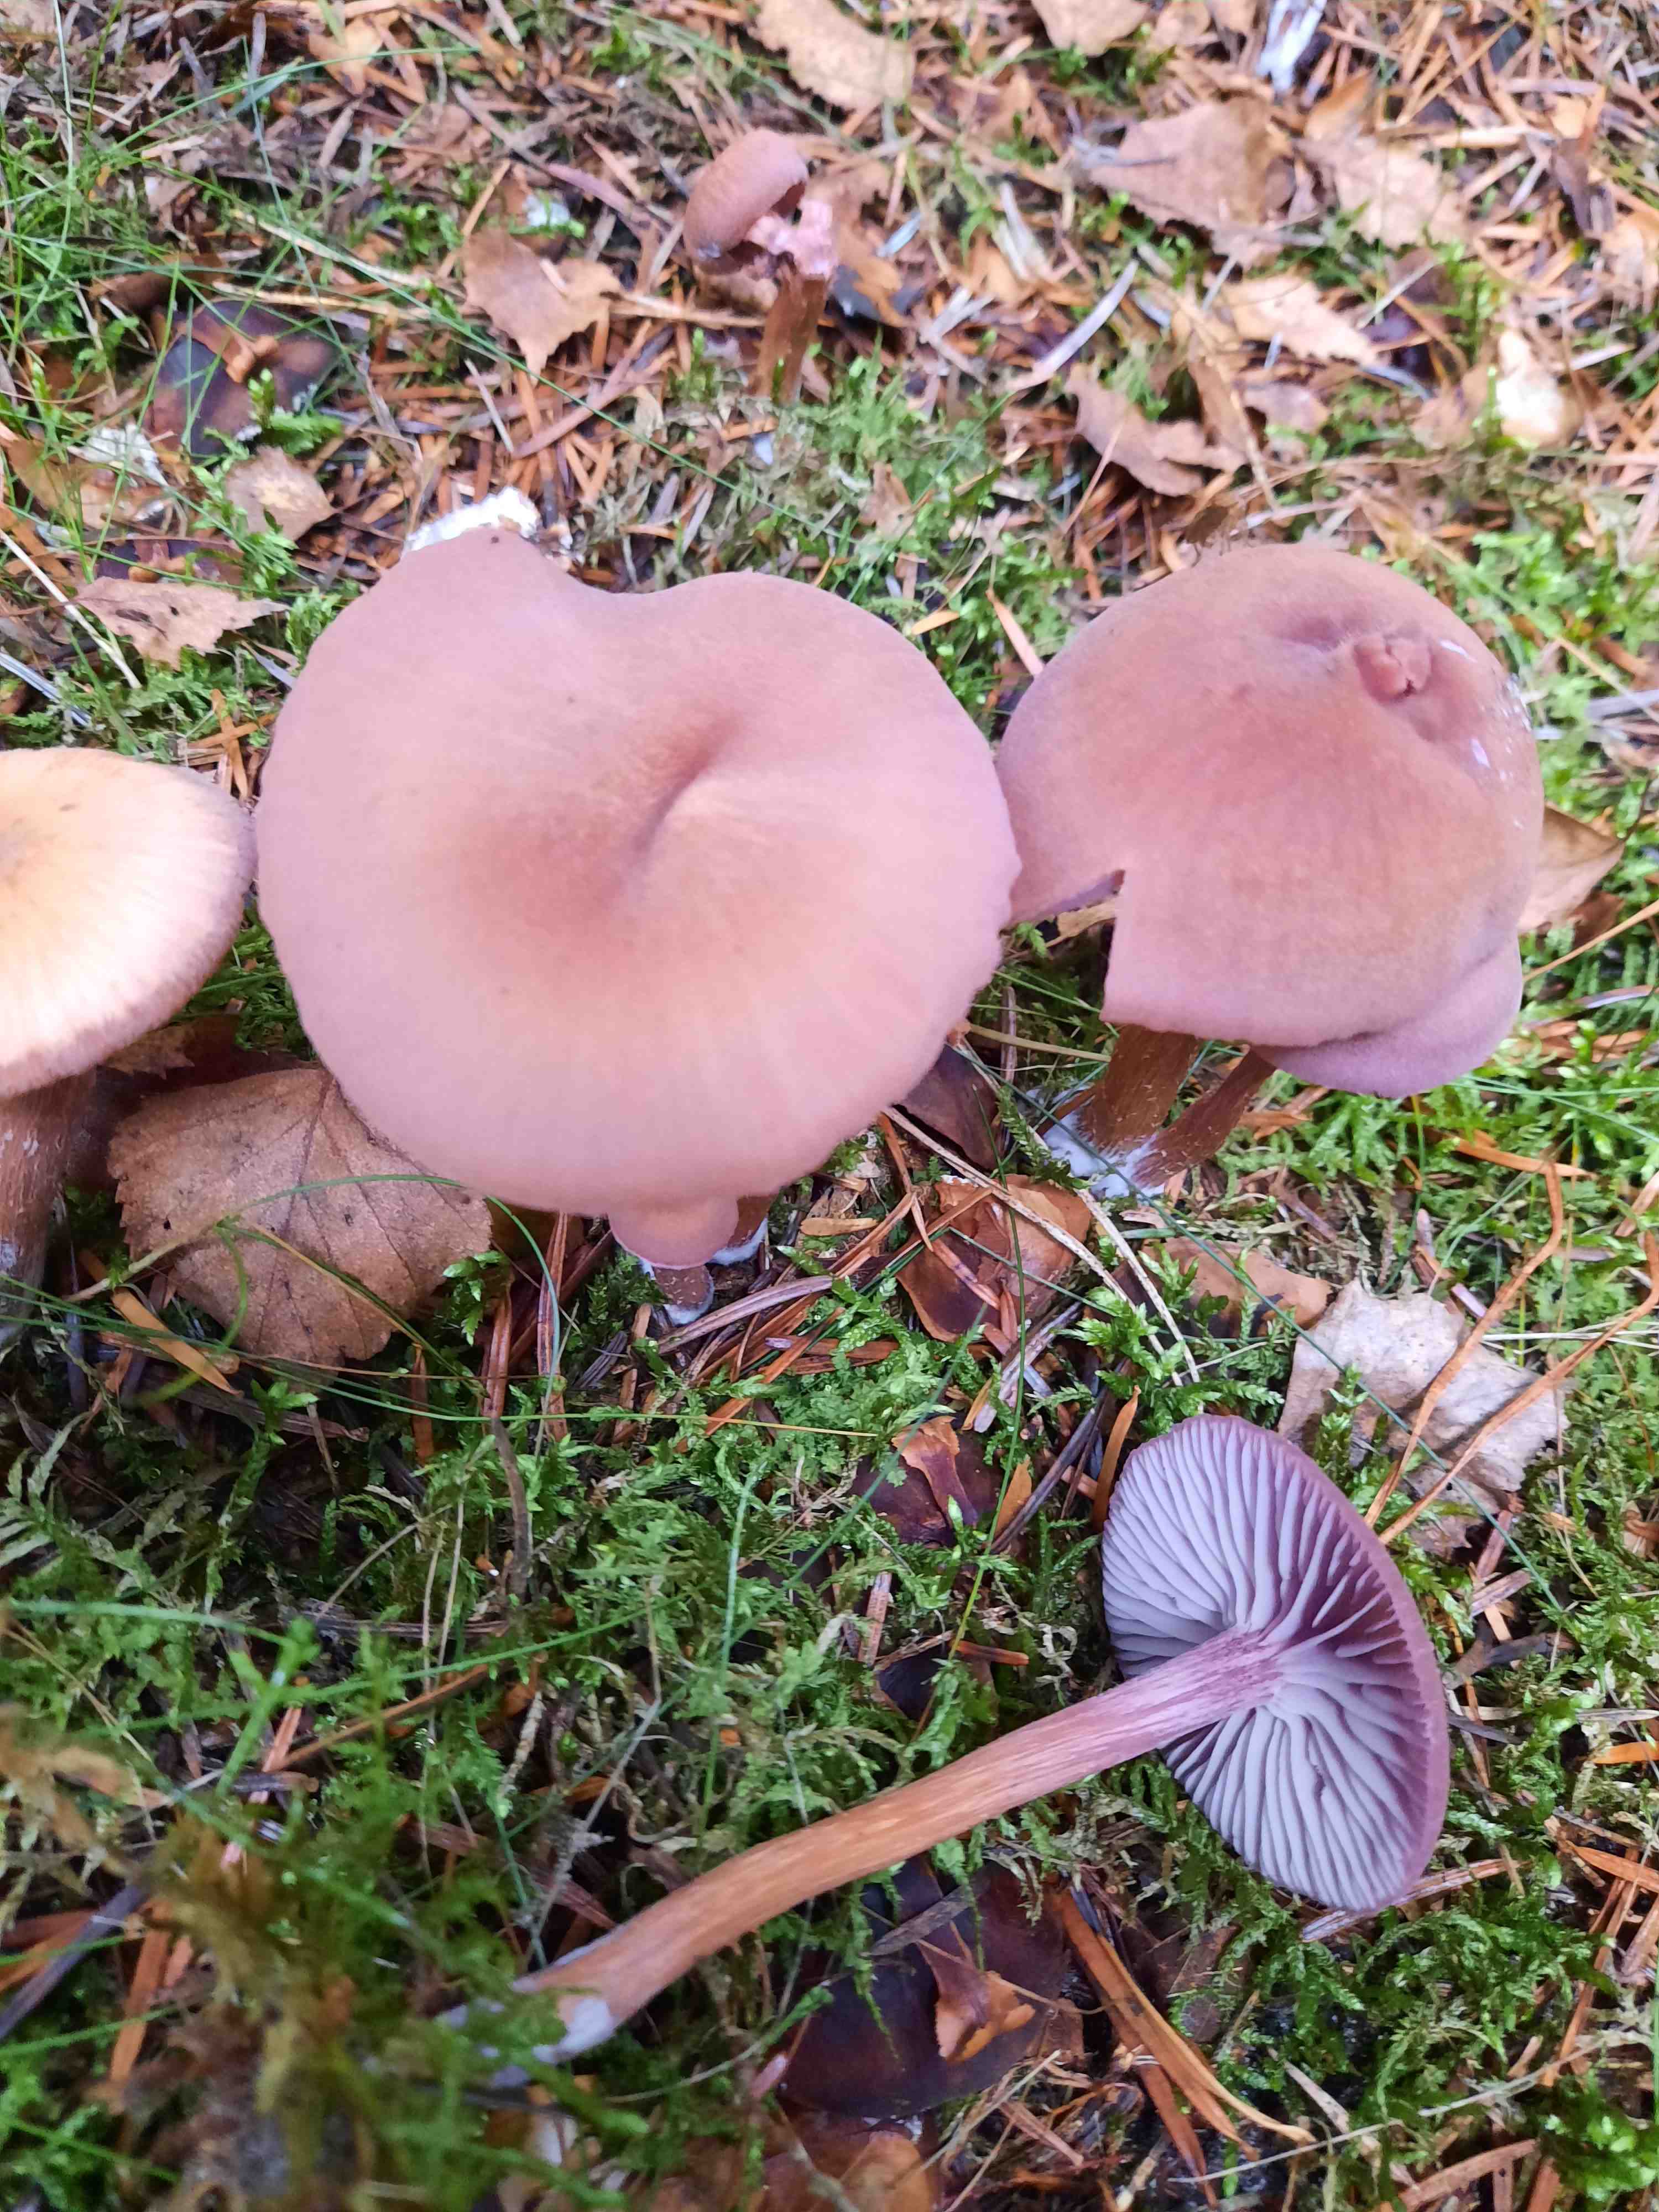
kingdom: Fungi
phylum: Basidiomycota
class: Agaricomycetes
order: Agaricales
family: Hydnangiaceae
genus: Laccaria
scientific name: Laccaria bicolor
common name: tvefarvet ametysthat
